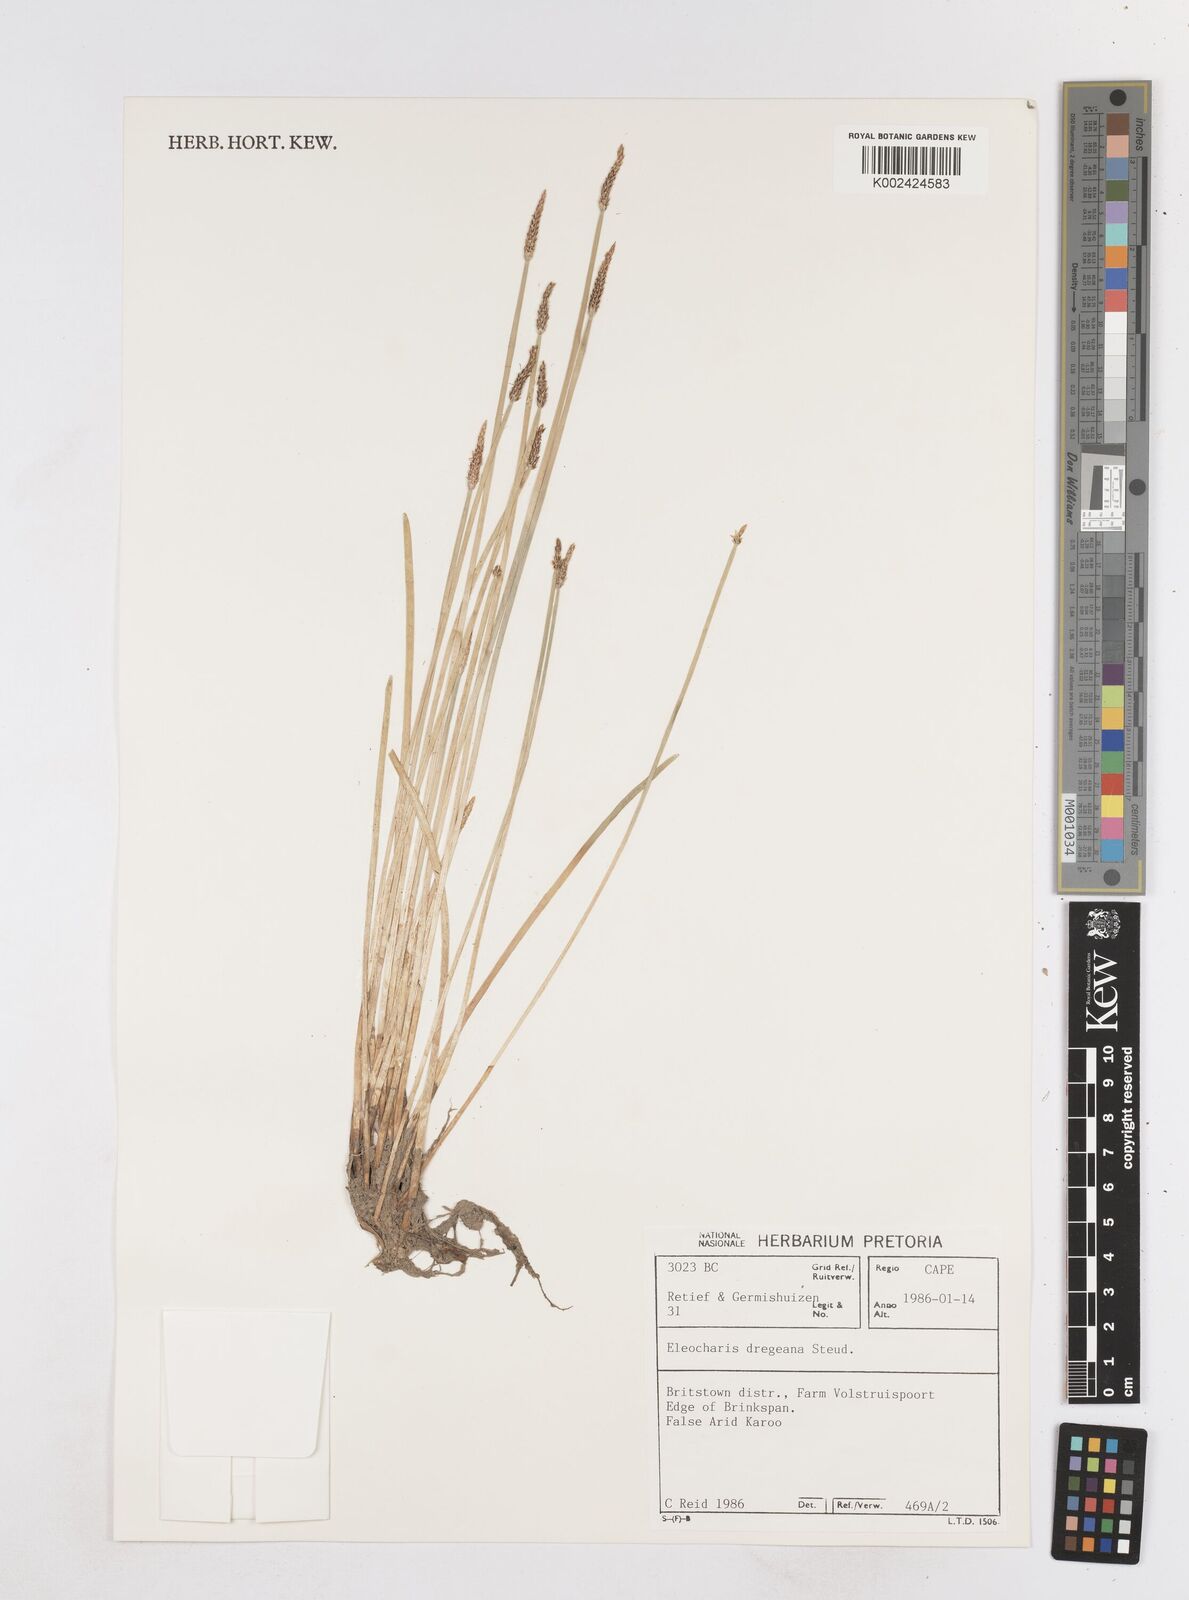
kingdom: Plantae
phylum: Tracheophyta
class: Liliopsida
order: Poales
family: Cyperaceae
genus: Eleocharis
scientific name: Eleocharis dregeana
